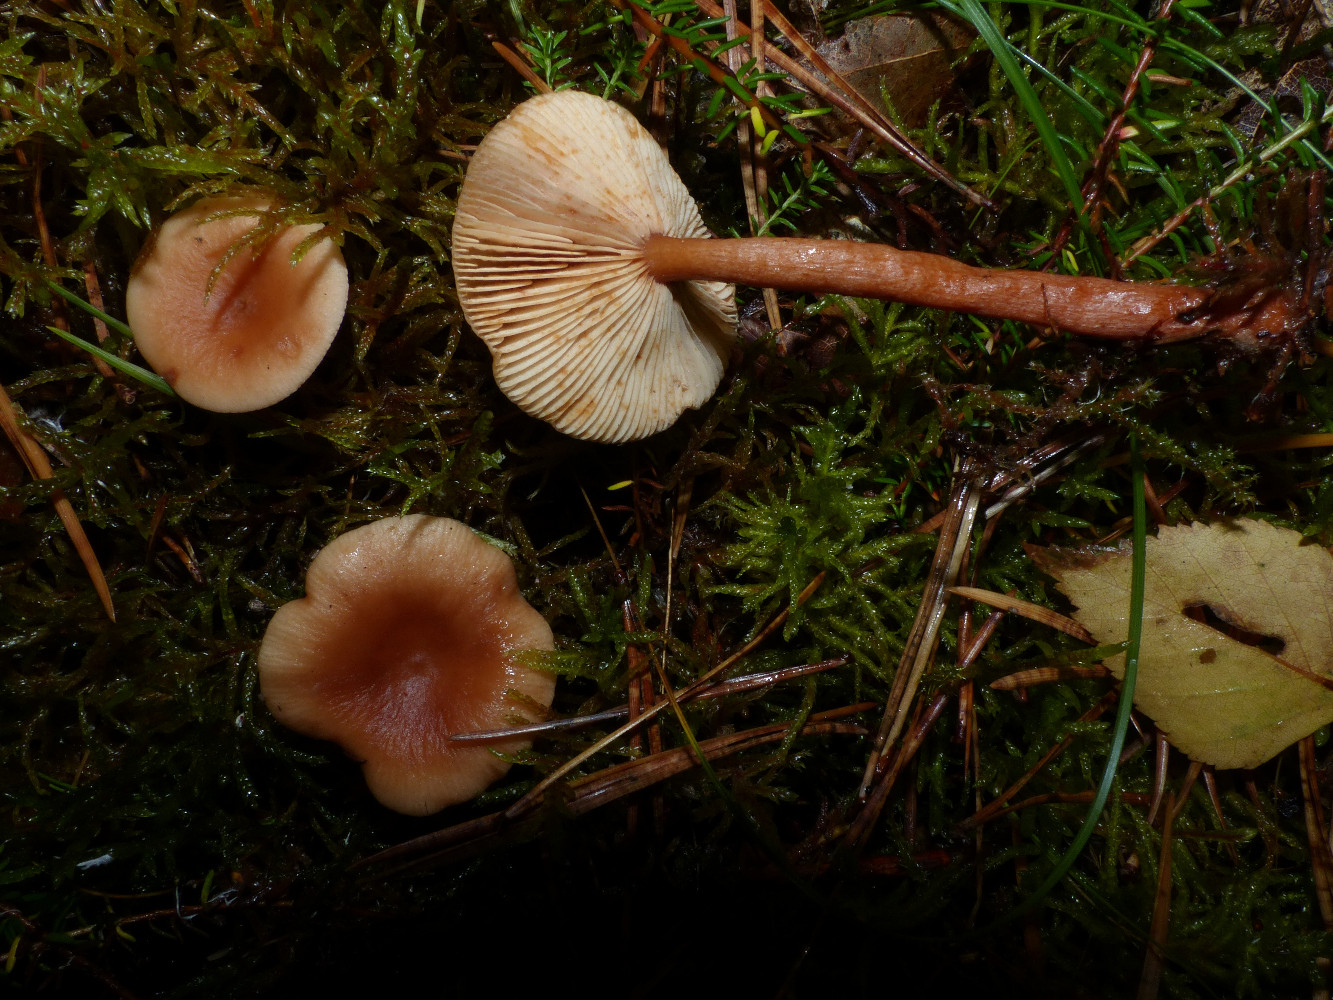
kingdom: Fungi
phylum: Basidiomycota
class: Agaricomycetes
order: Russulales
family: Russulaceae
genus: Lactarius
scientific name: Lactarius tabidus
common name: rynket mælkehat
